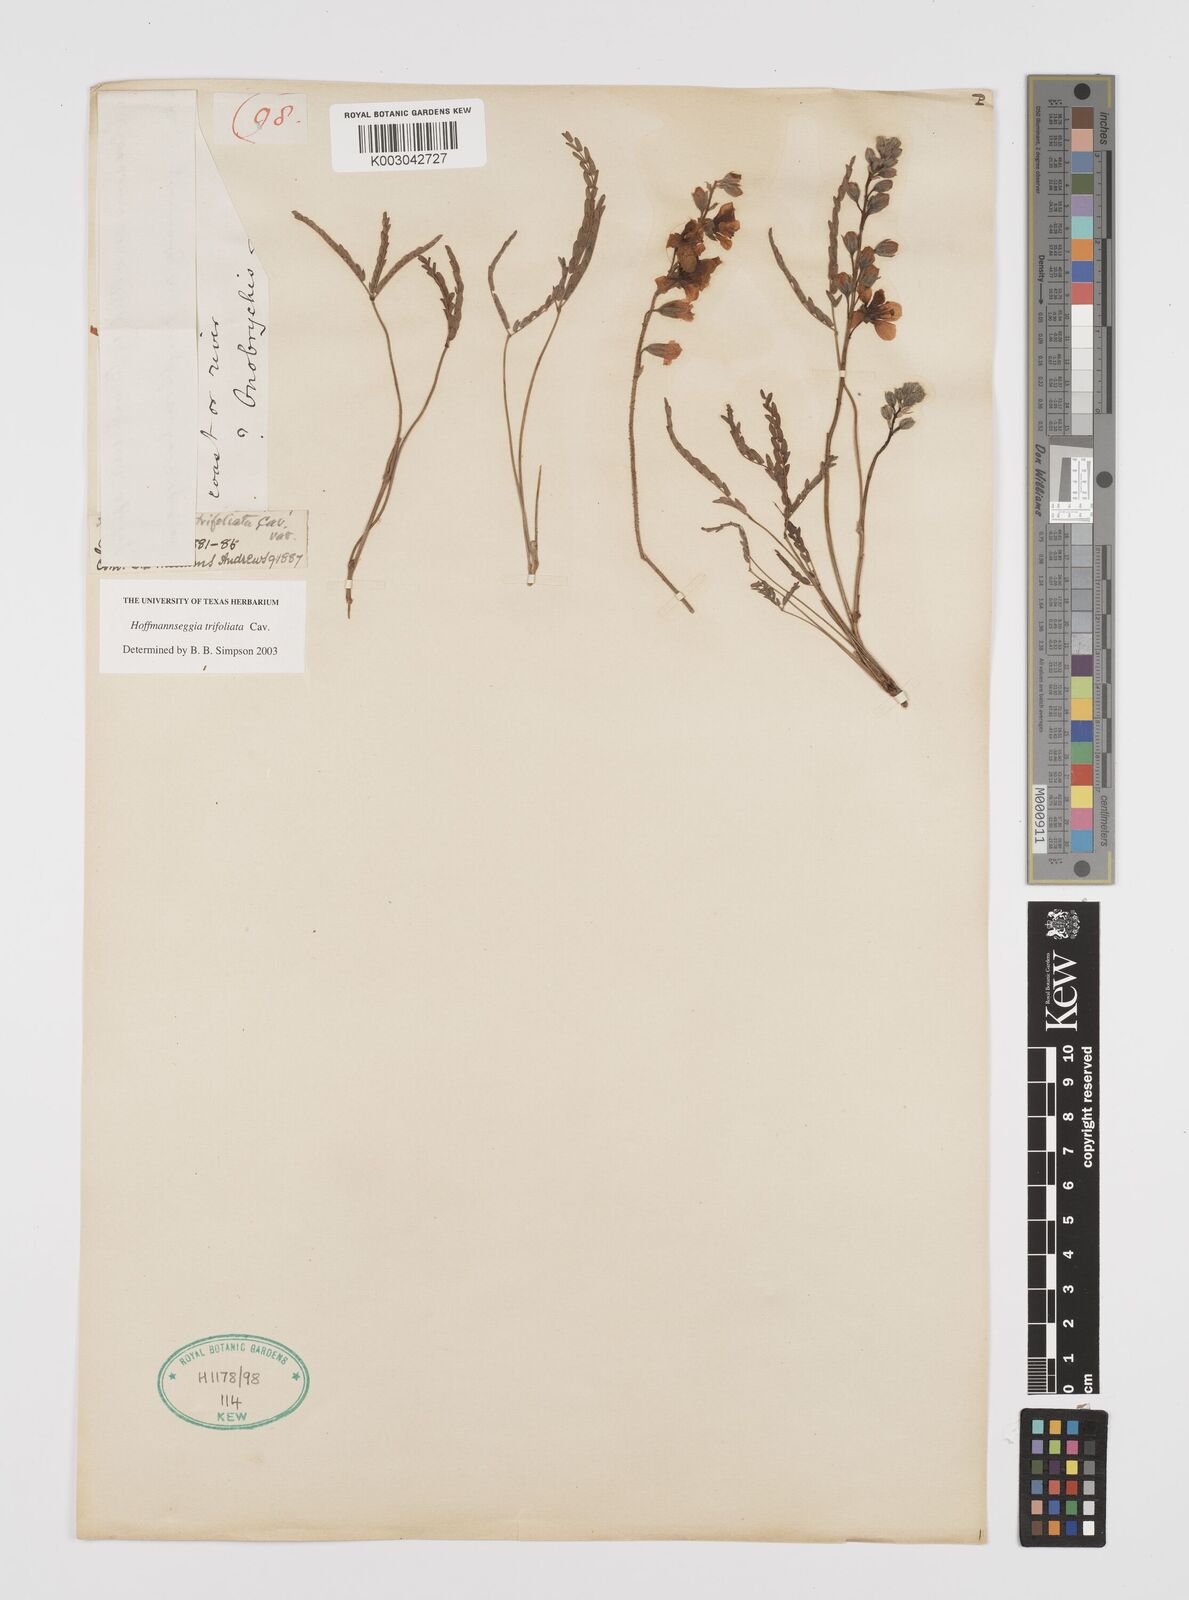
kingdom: Plantae
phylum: Tracheophyta
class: Magnoliopsida
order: Fabales
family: Fabaceae
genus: Hoffmannseggia
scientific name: Hoffmannseggia trifoliata
